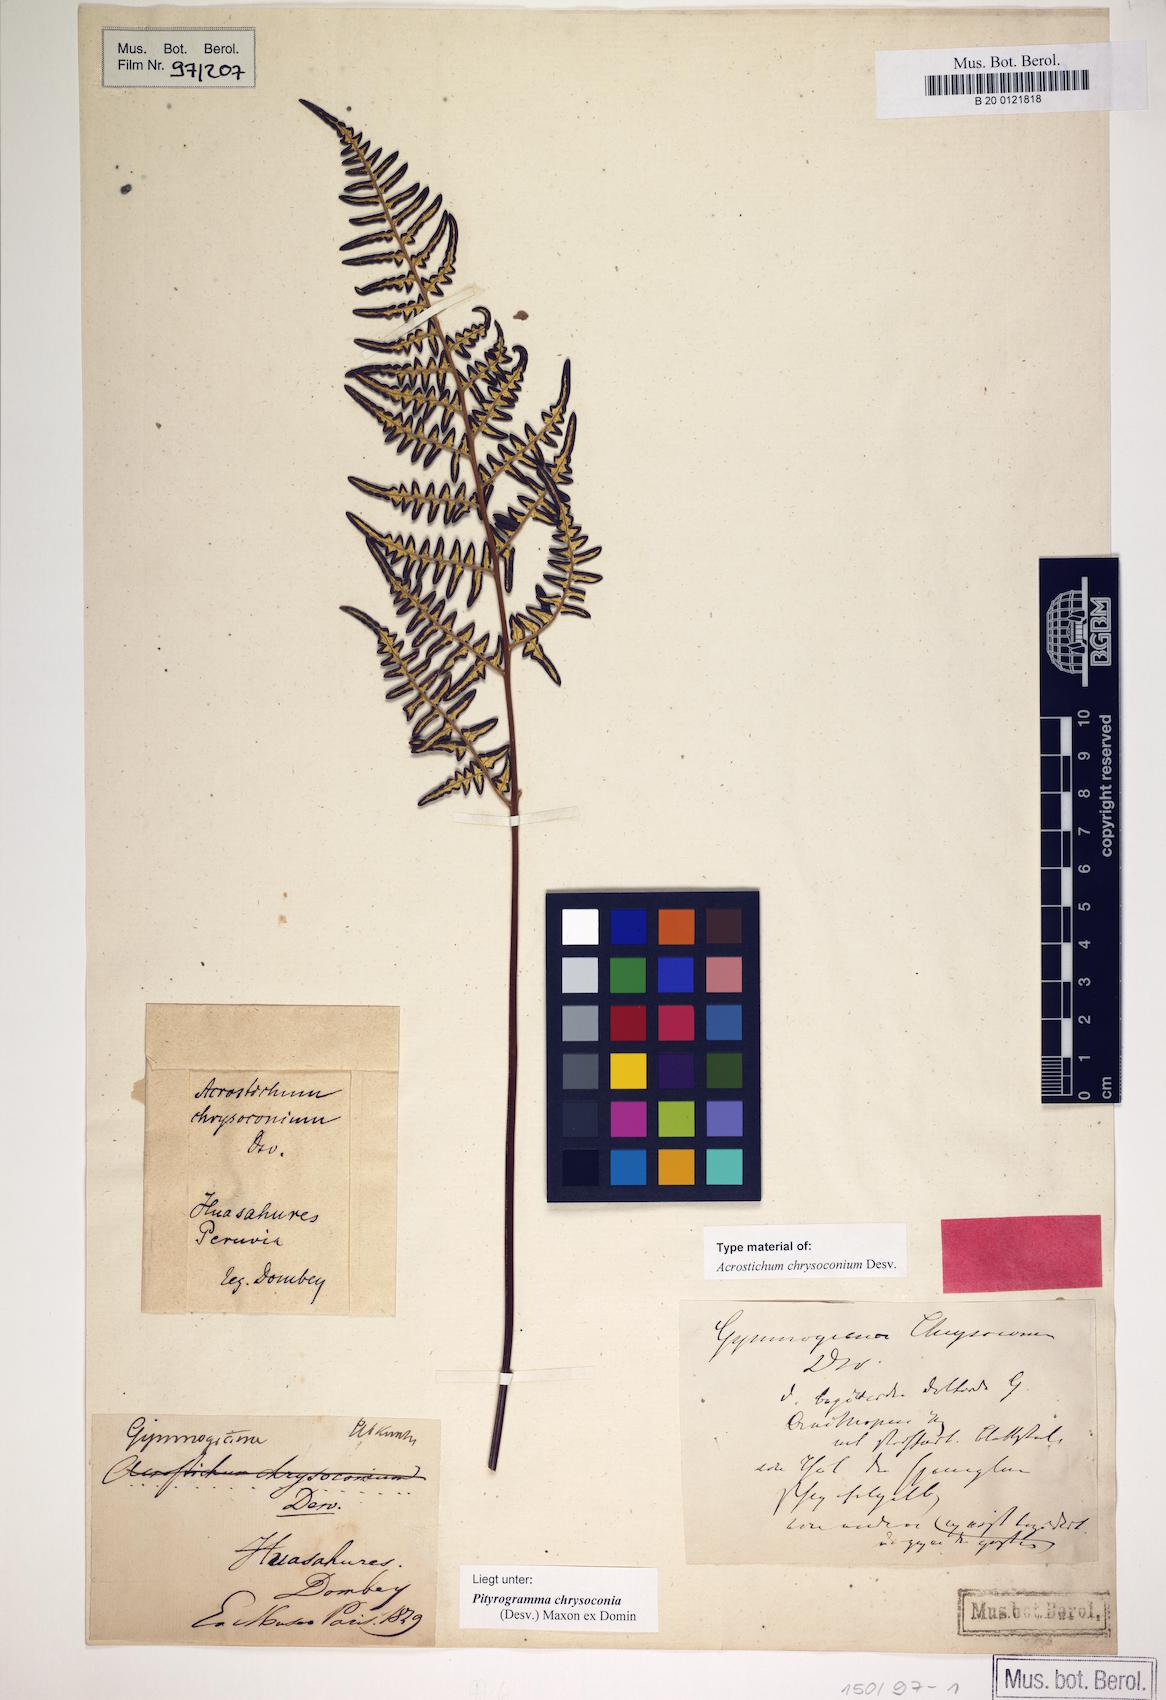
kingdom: Plantae
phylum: Tracheophyta
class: Polypodiopsida
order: Polypodiales
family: Pteridaceae
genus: Pityrogramma
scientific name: Pityrogramma chrysoconia
